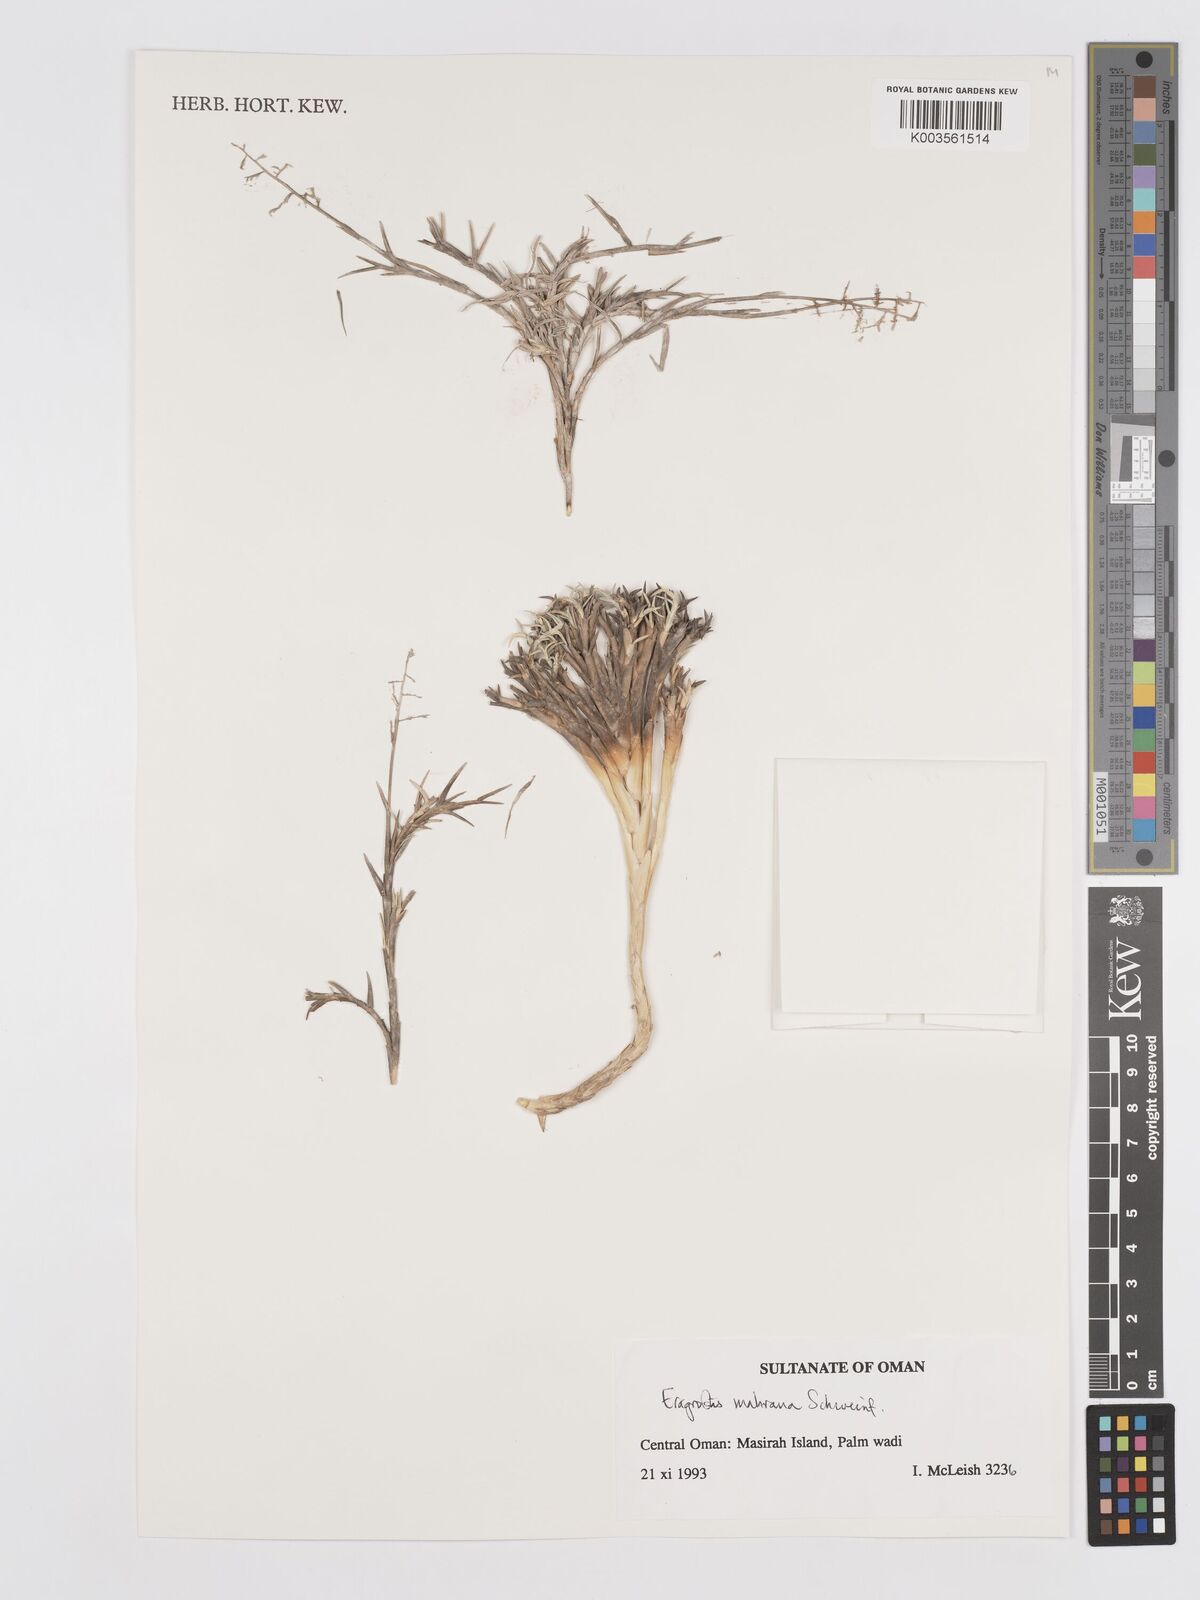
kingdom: Plantae
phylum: Tracheophyta
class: Liliopsida
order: Poales
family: Poaceae
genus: Eragrostis
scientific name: Eragrostis mahrana
